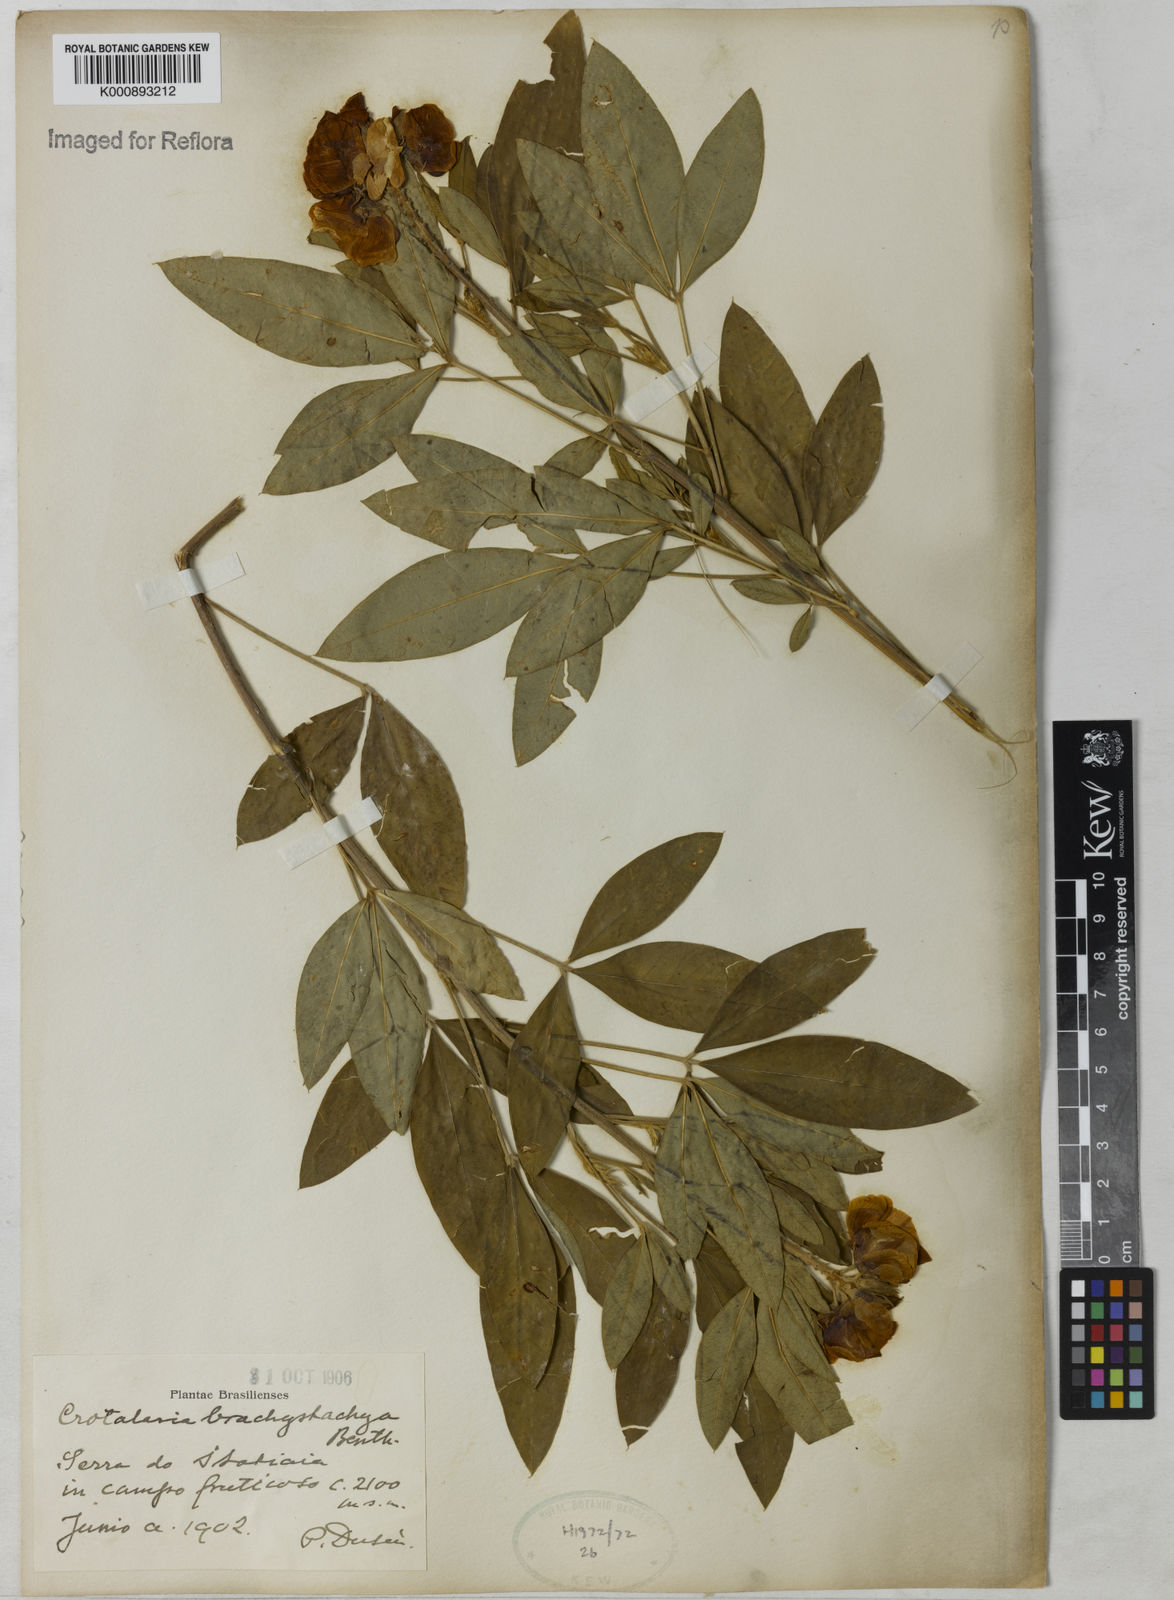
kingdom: Plantae
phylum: Tracheophyta
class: Magnoliopsida
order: Fabales
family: Fabaceae
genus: Crotalaria
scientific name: Crotalaria micans
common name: Caracas rattlebox
